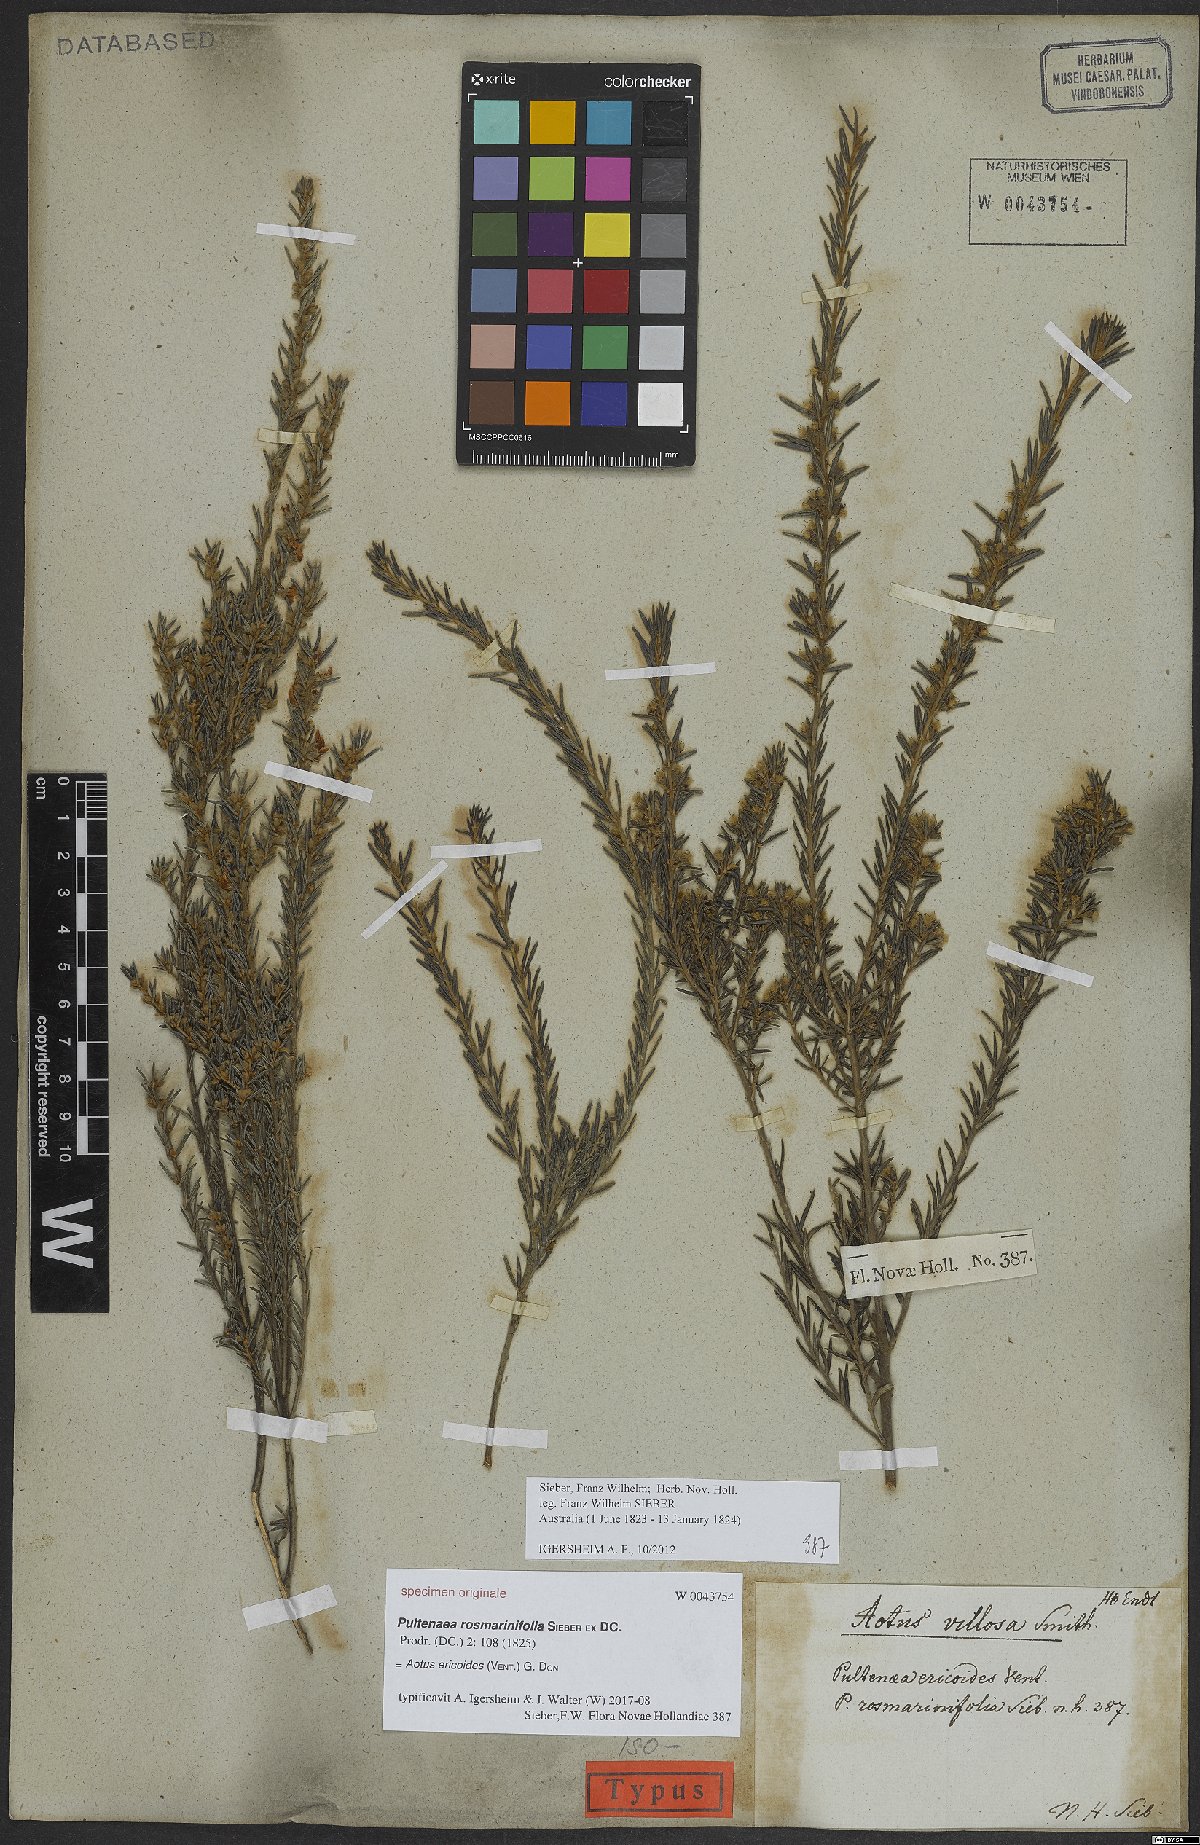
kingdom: Plantae
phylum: Tracheophyta
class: Magnoliopsida
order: Fabales
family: Fabaceae
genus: Aotus
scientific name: Aotus ericoides
